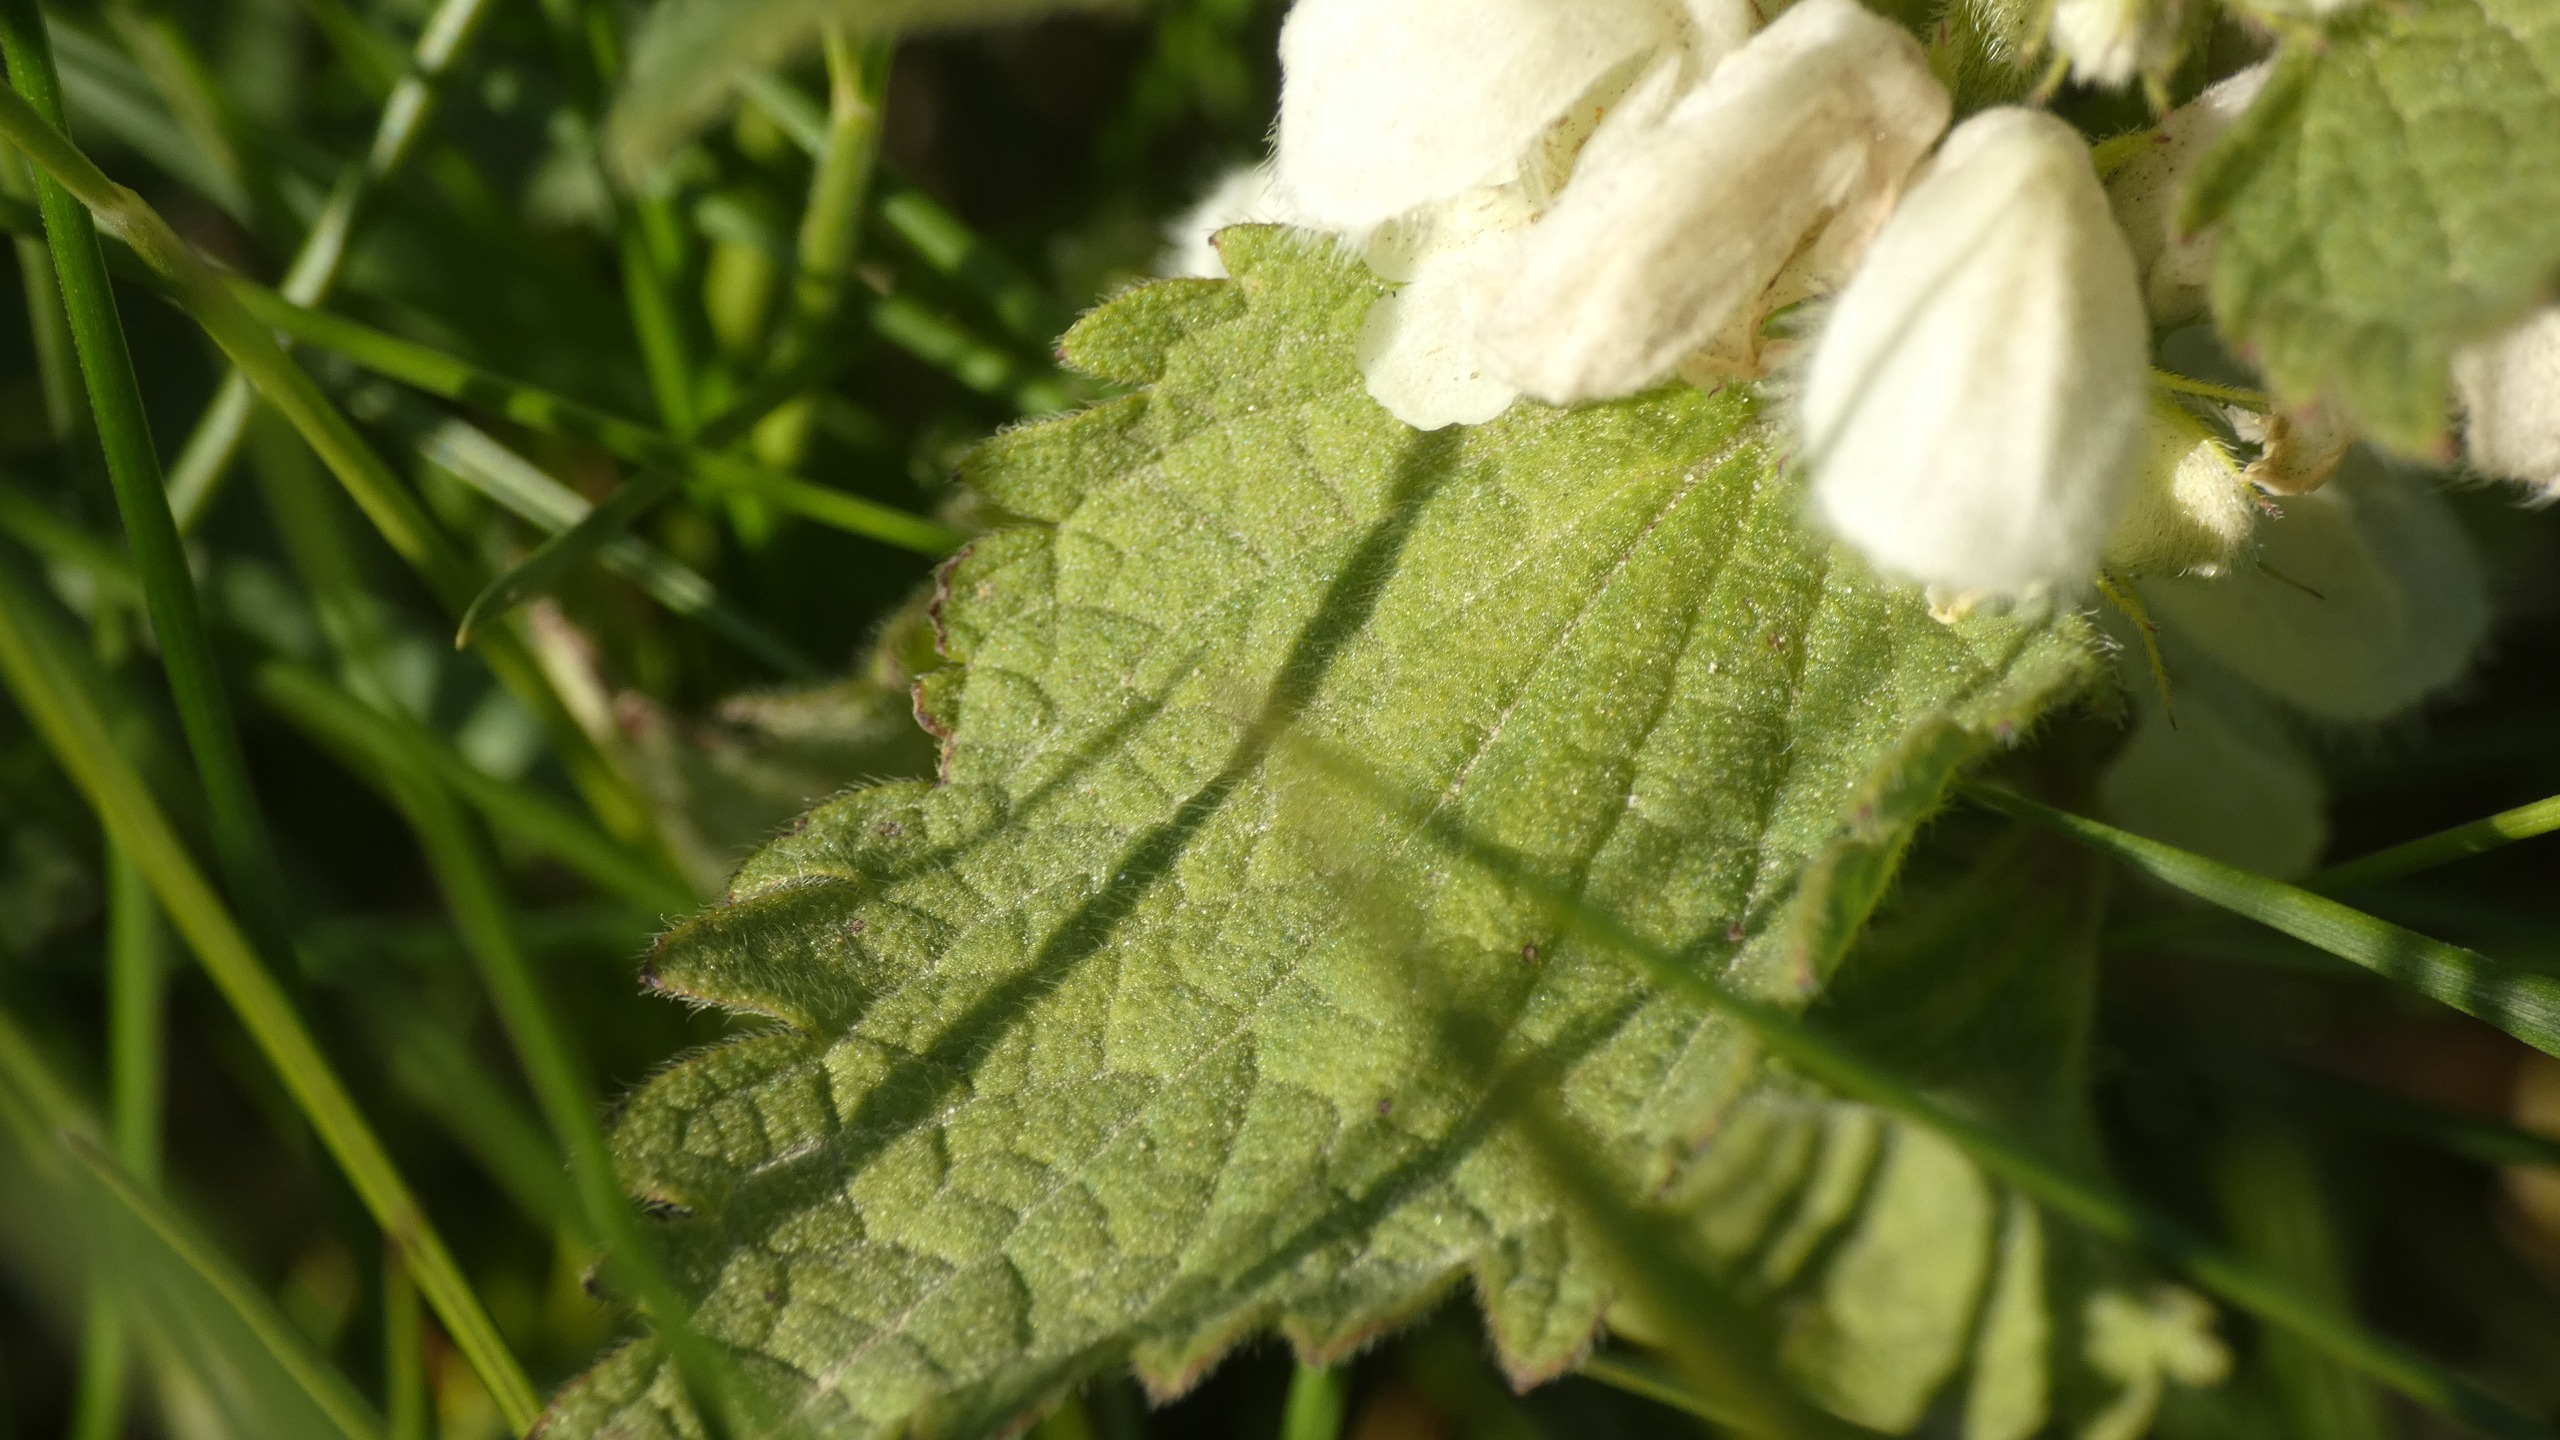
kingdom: Plantae
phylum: Tracheophyta
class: Magnoliopsida
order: Lamiales
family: Lamiaceae
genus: Lamium
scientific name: Lamium album
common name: Døvnælde
